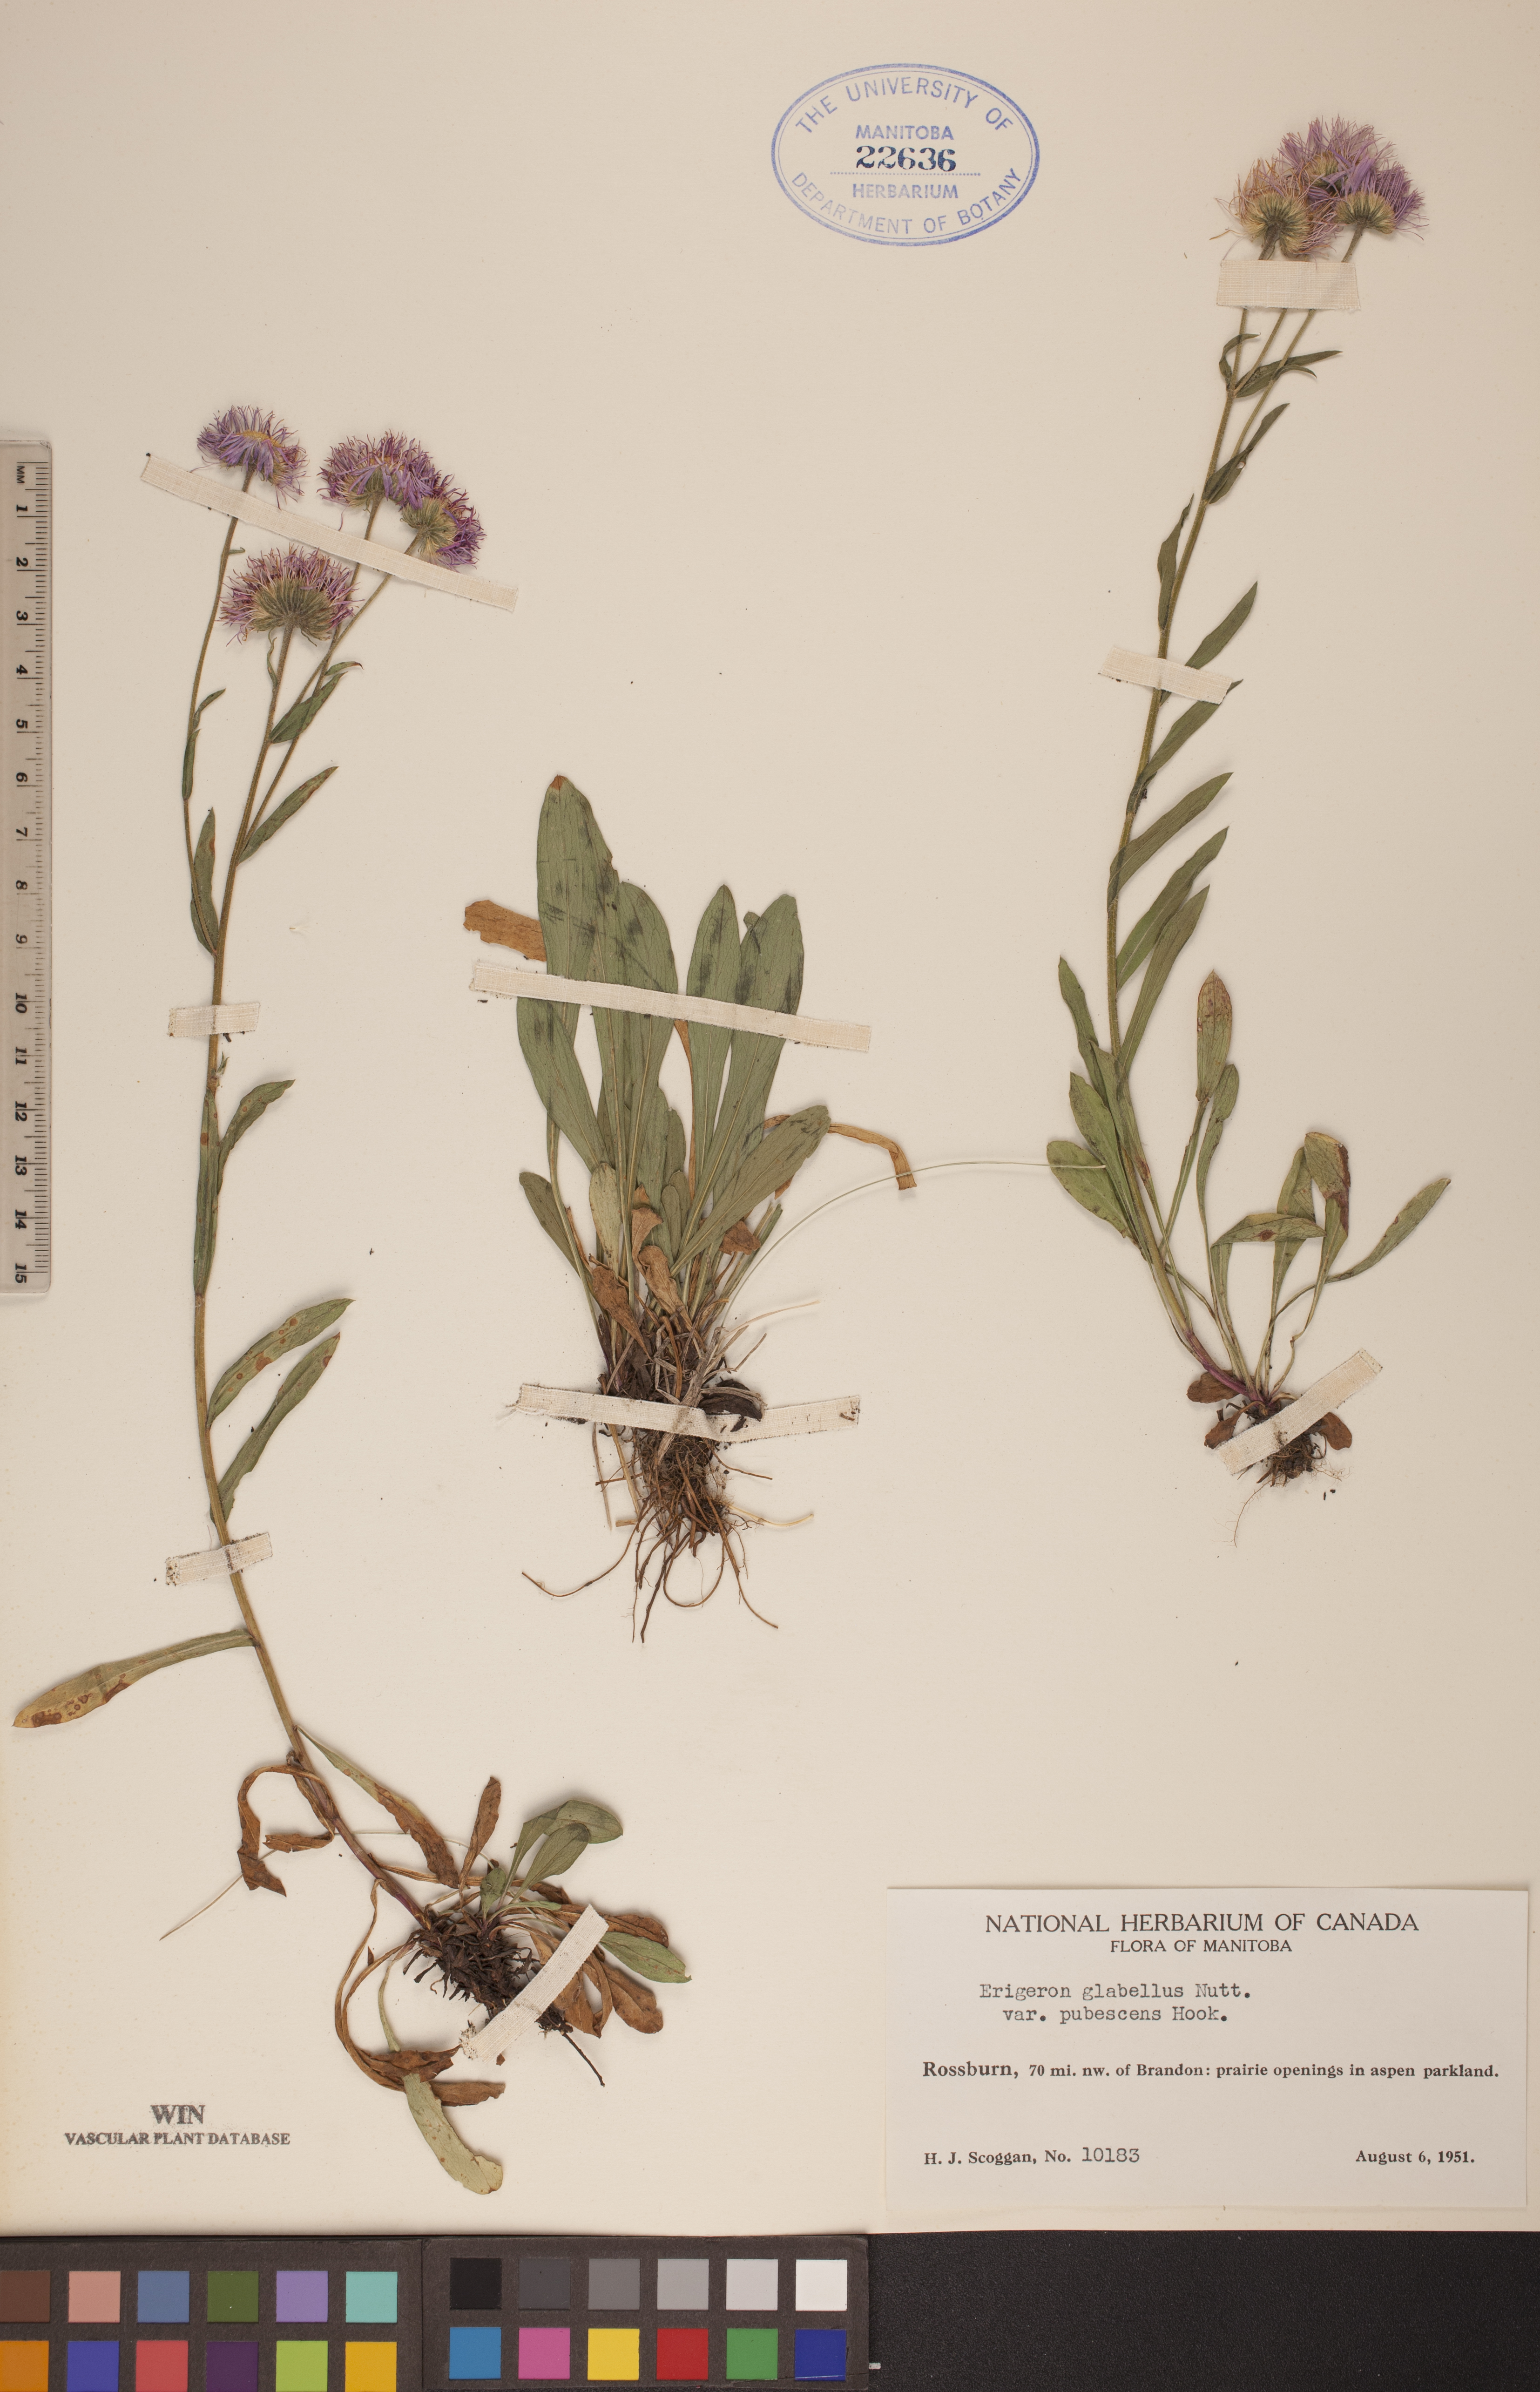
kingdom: Plantae
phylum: Tracheophyta
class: Magnoliopsida
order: Asterales
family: Asteraceae
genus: Erigeron
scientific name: Erigeron glabellus
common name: Smooth fleabane
